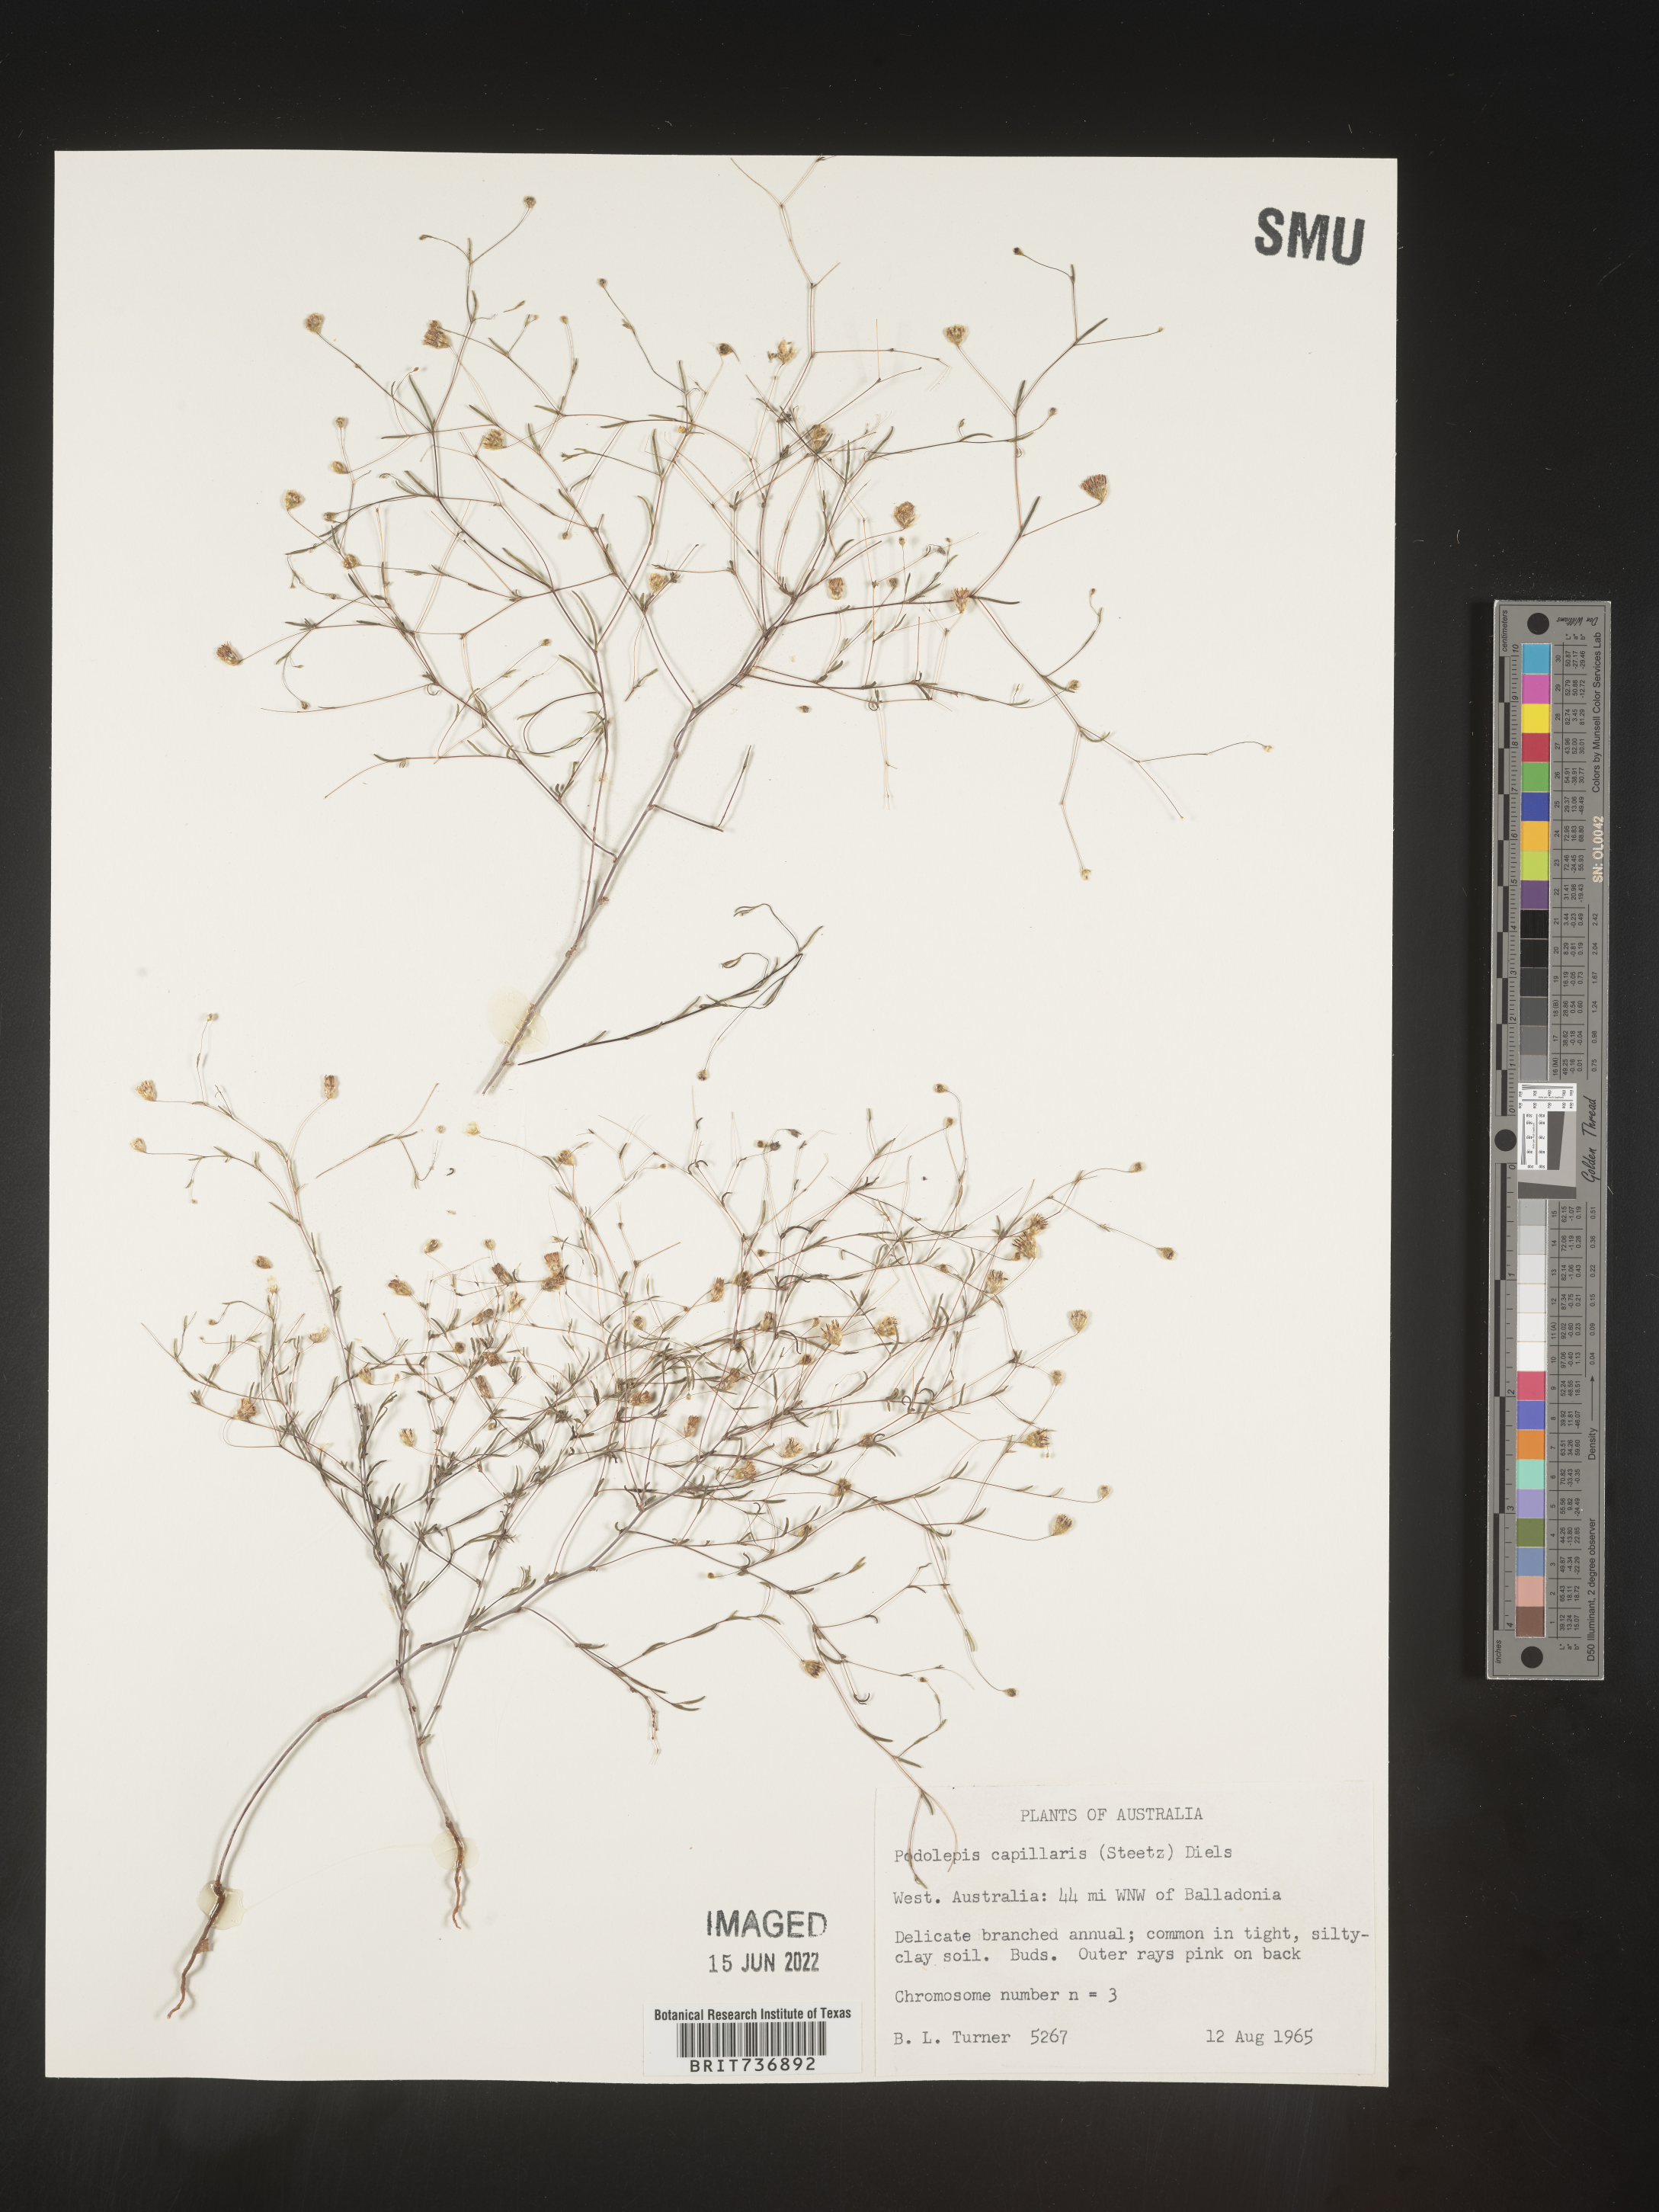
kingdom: Plantae
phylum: Tracheophyta
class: Magnoliopsida
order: Asterales
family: Asteraceae
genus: Podolepis
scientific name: Podolepis
